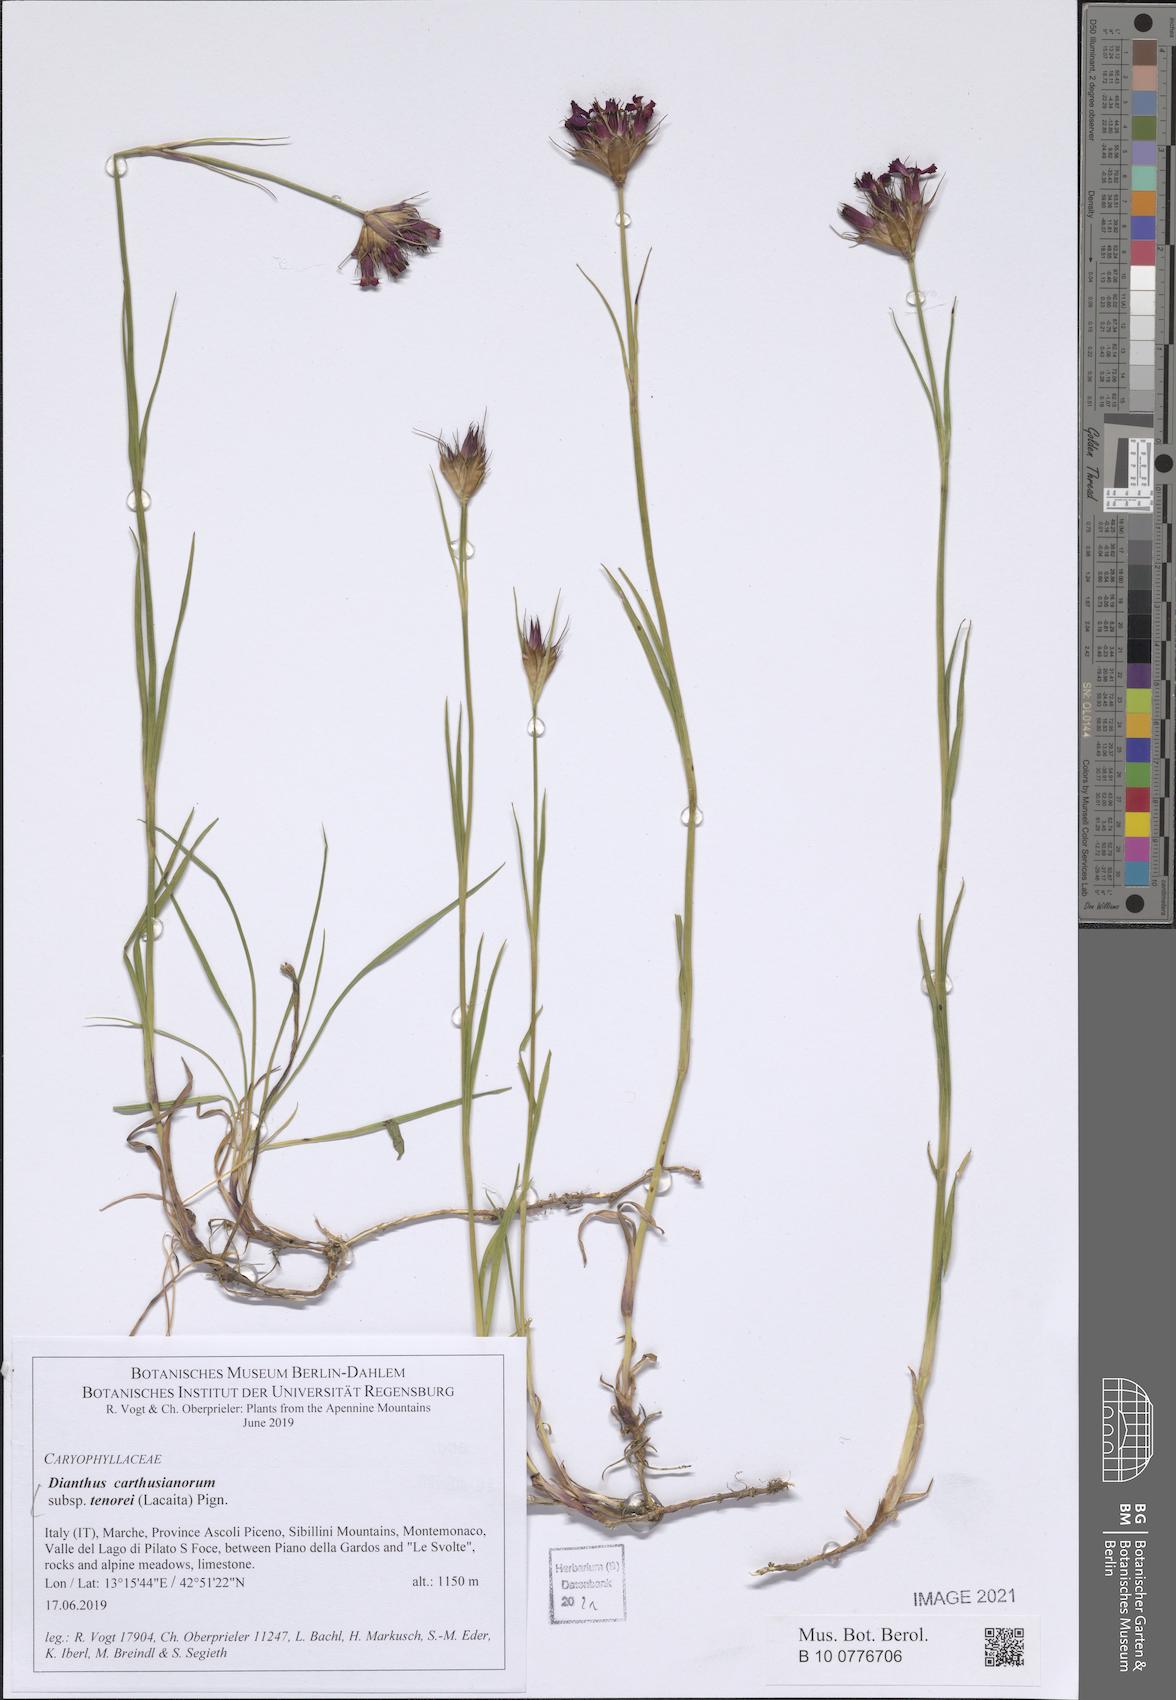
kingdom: Plantae
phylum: Tracheophyta
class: Magnoliopsida
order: Caryophyllales
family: Caryophyllaceae
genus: Dianthus
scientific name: Dianthus carthusianorum
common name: Carthusian pink
